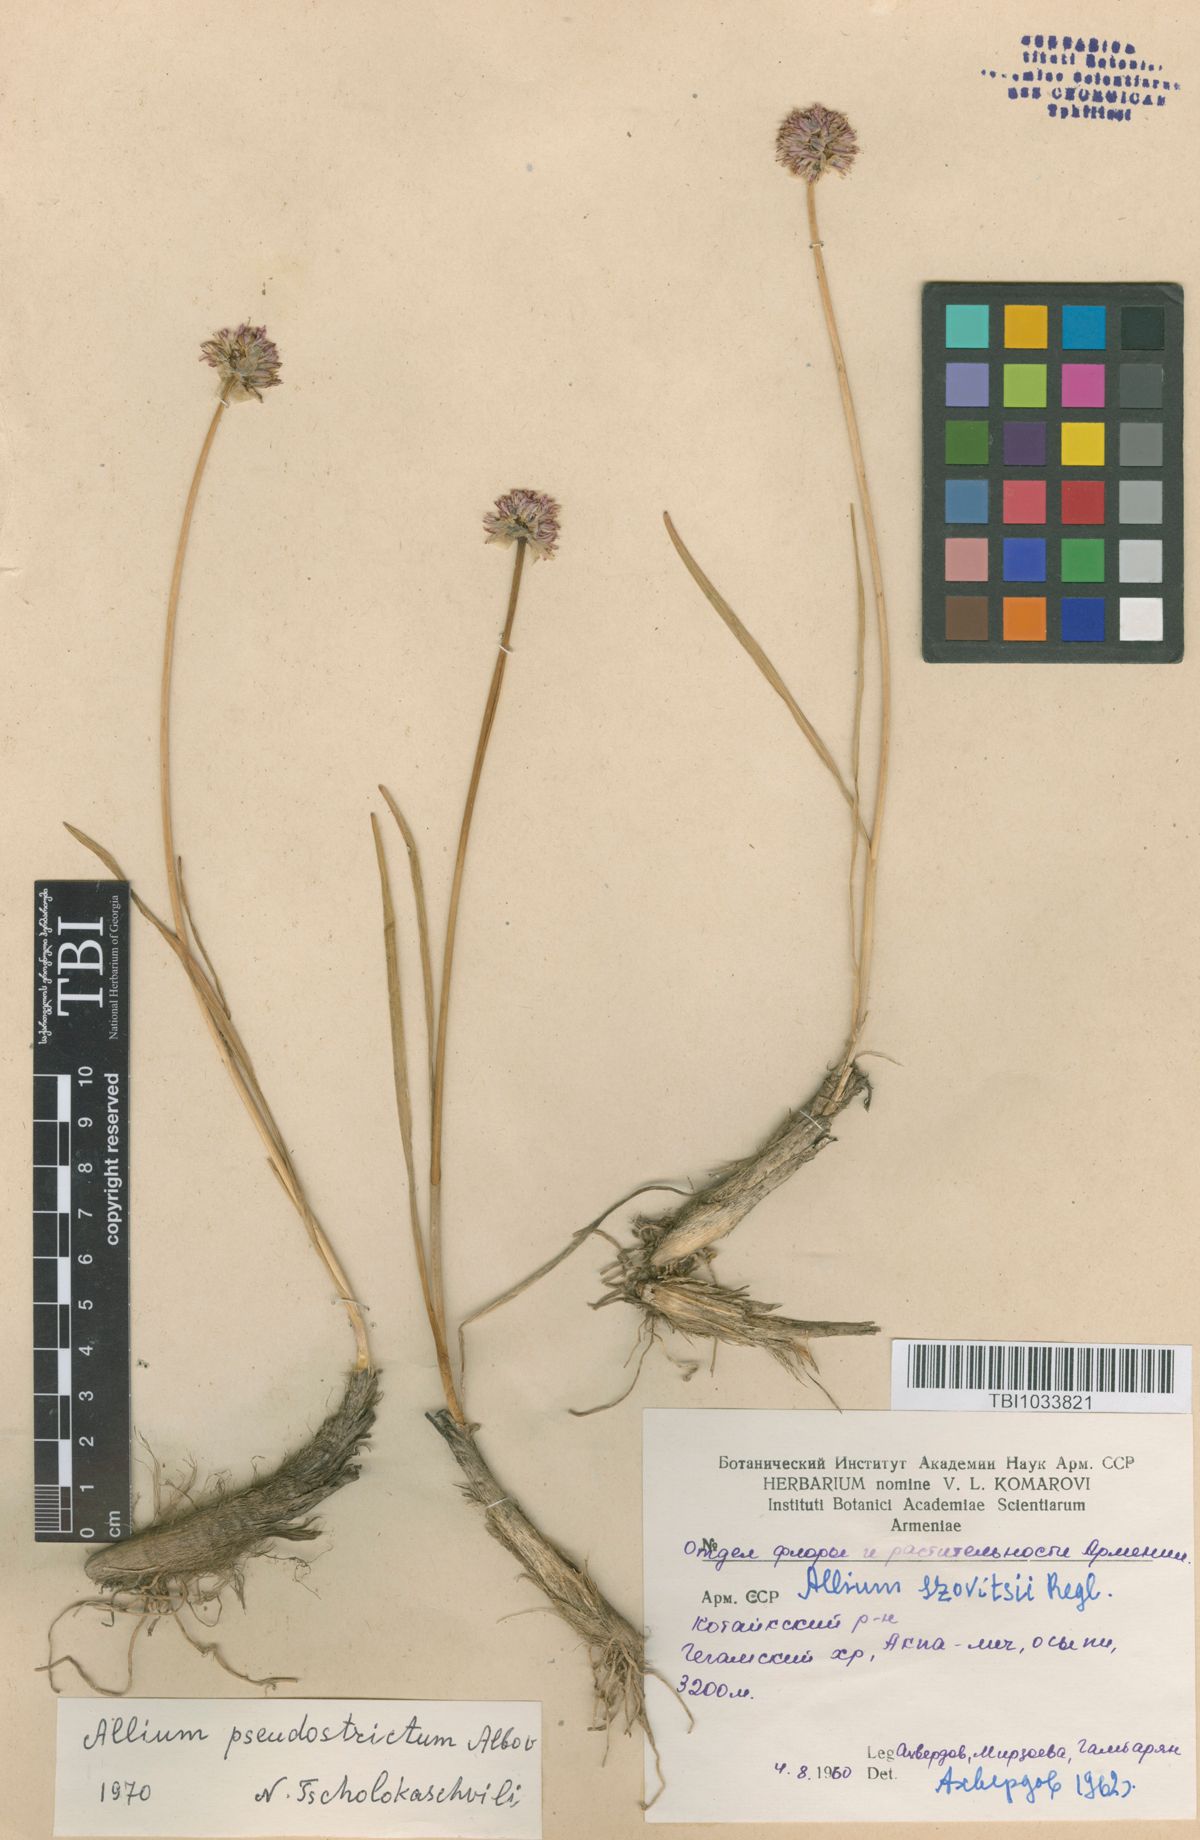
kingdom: Plantae
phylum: Tracheophyta
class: Liliopsida
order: Asparagales
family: Amaryllidaceae
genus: Allium
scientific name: Allium pseudostrictum
